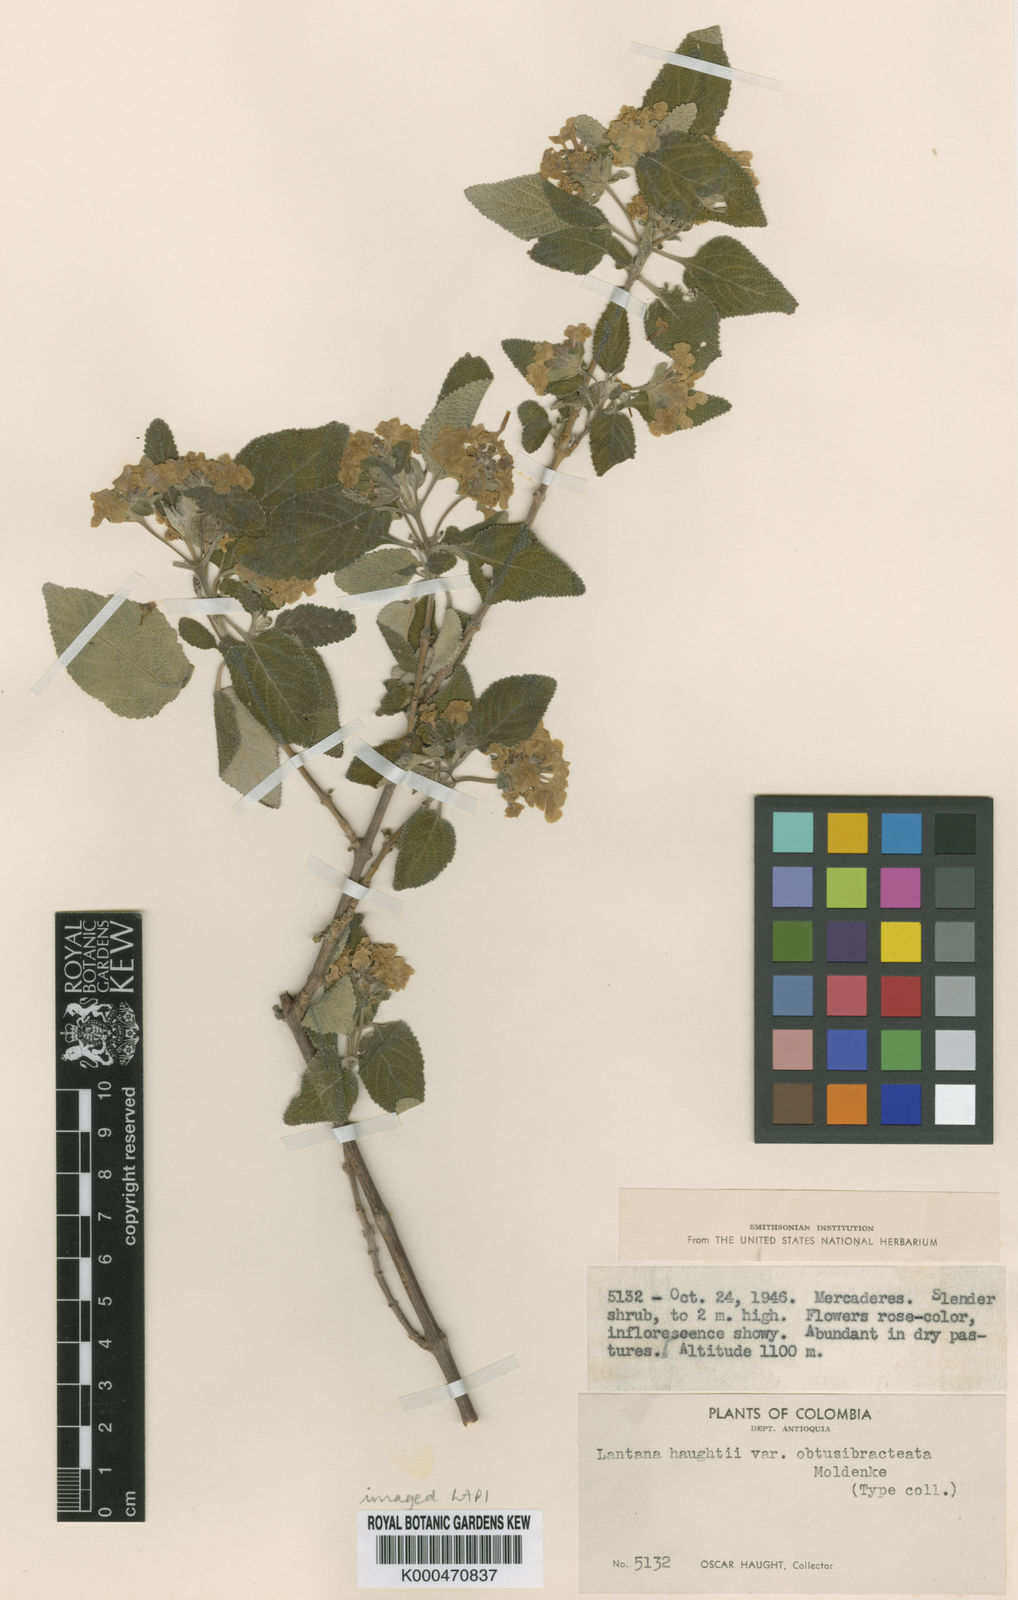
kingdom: Plantae
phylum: Tracheophyta
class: Magnoliopsida
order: Lamiales
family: Verbenaceae
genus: Lantana
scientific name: Lantana haughtii
